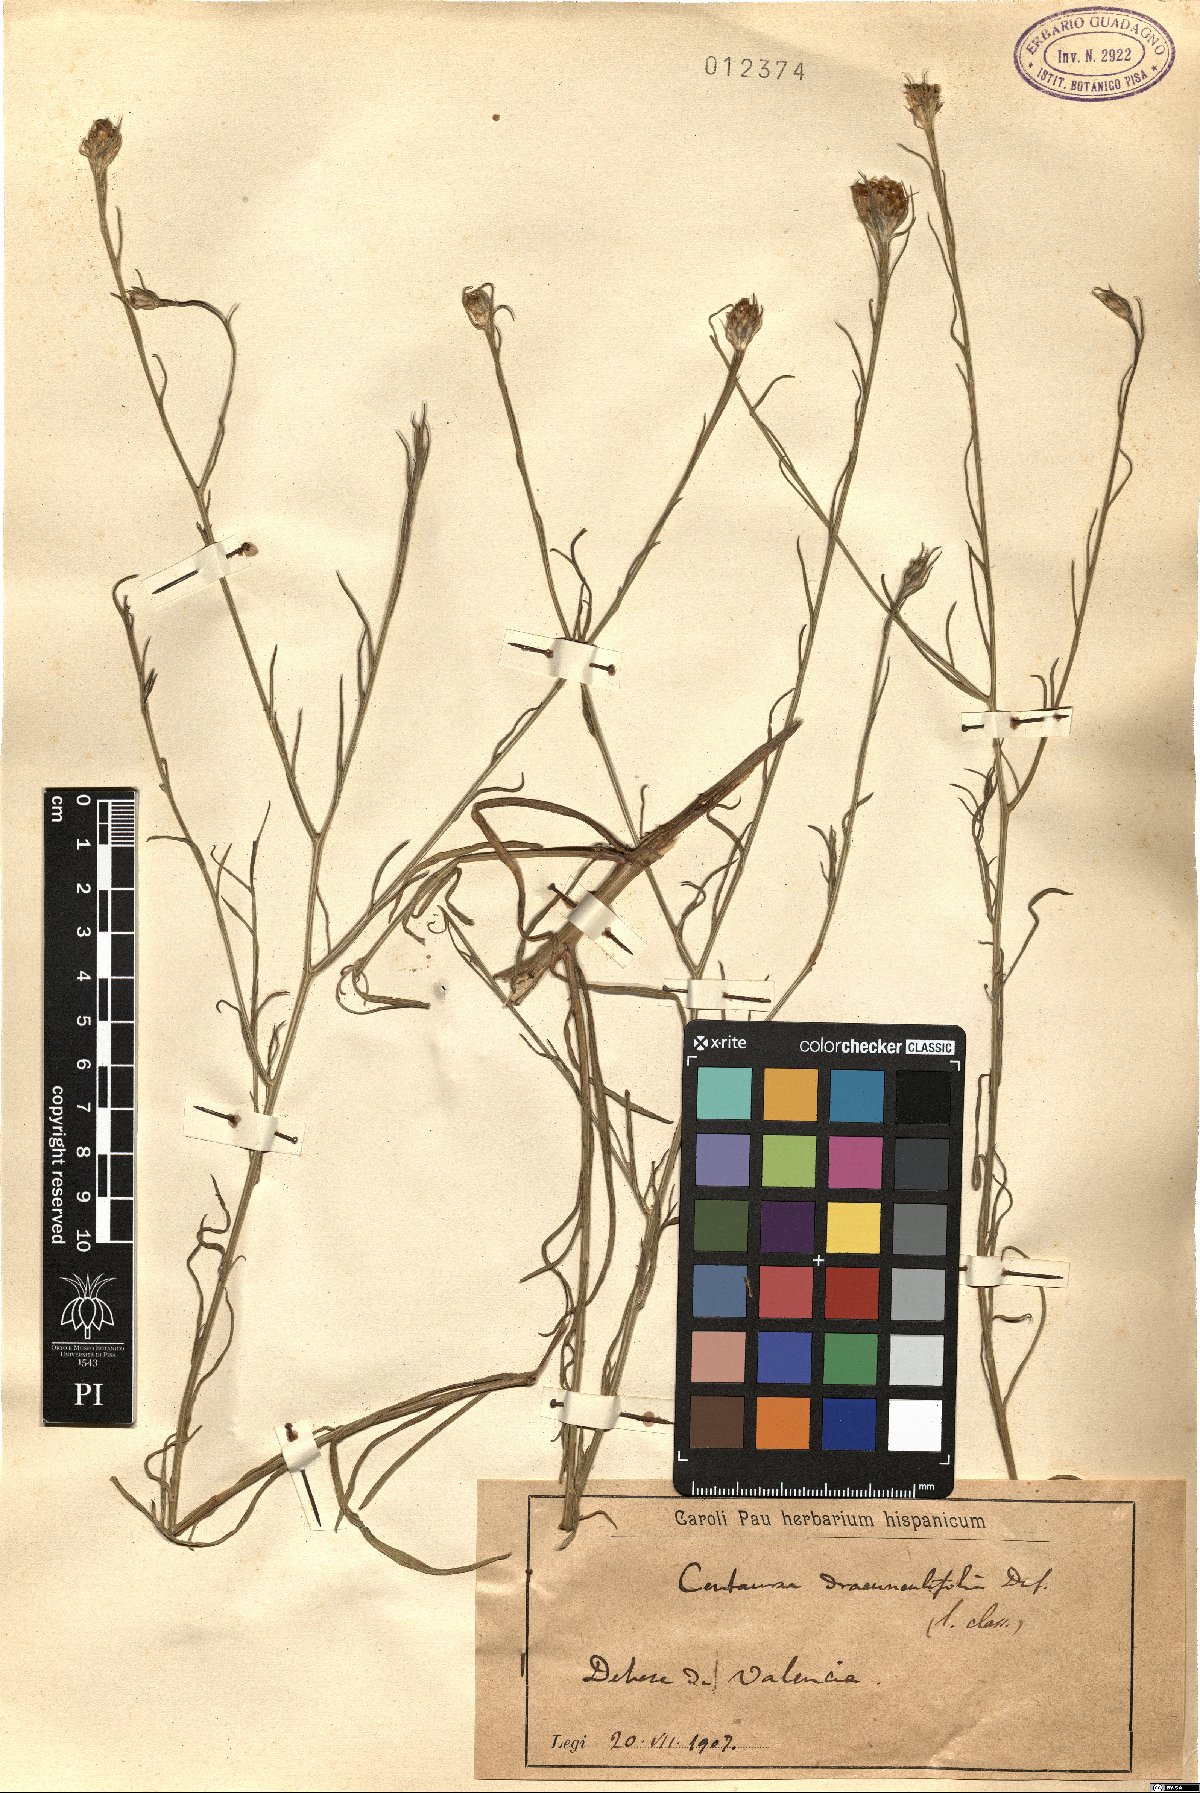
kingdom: Plantae
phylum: Tracheophyta
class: Magnoliopsida
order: Asterales
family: Asteraceae
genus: Centaurea
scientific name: Centaurea dracunculifolia
